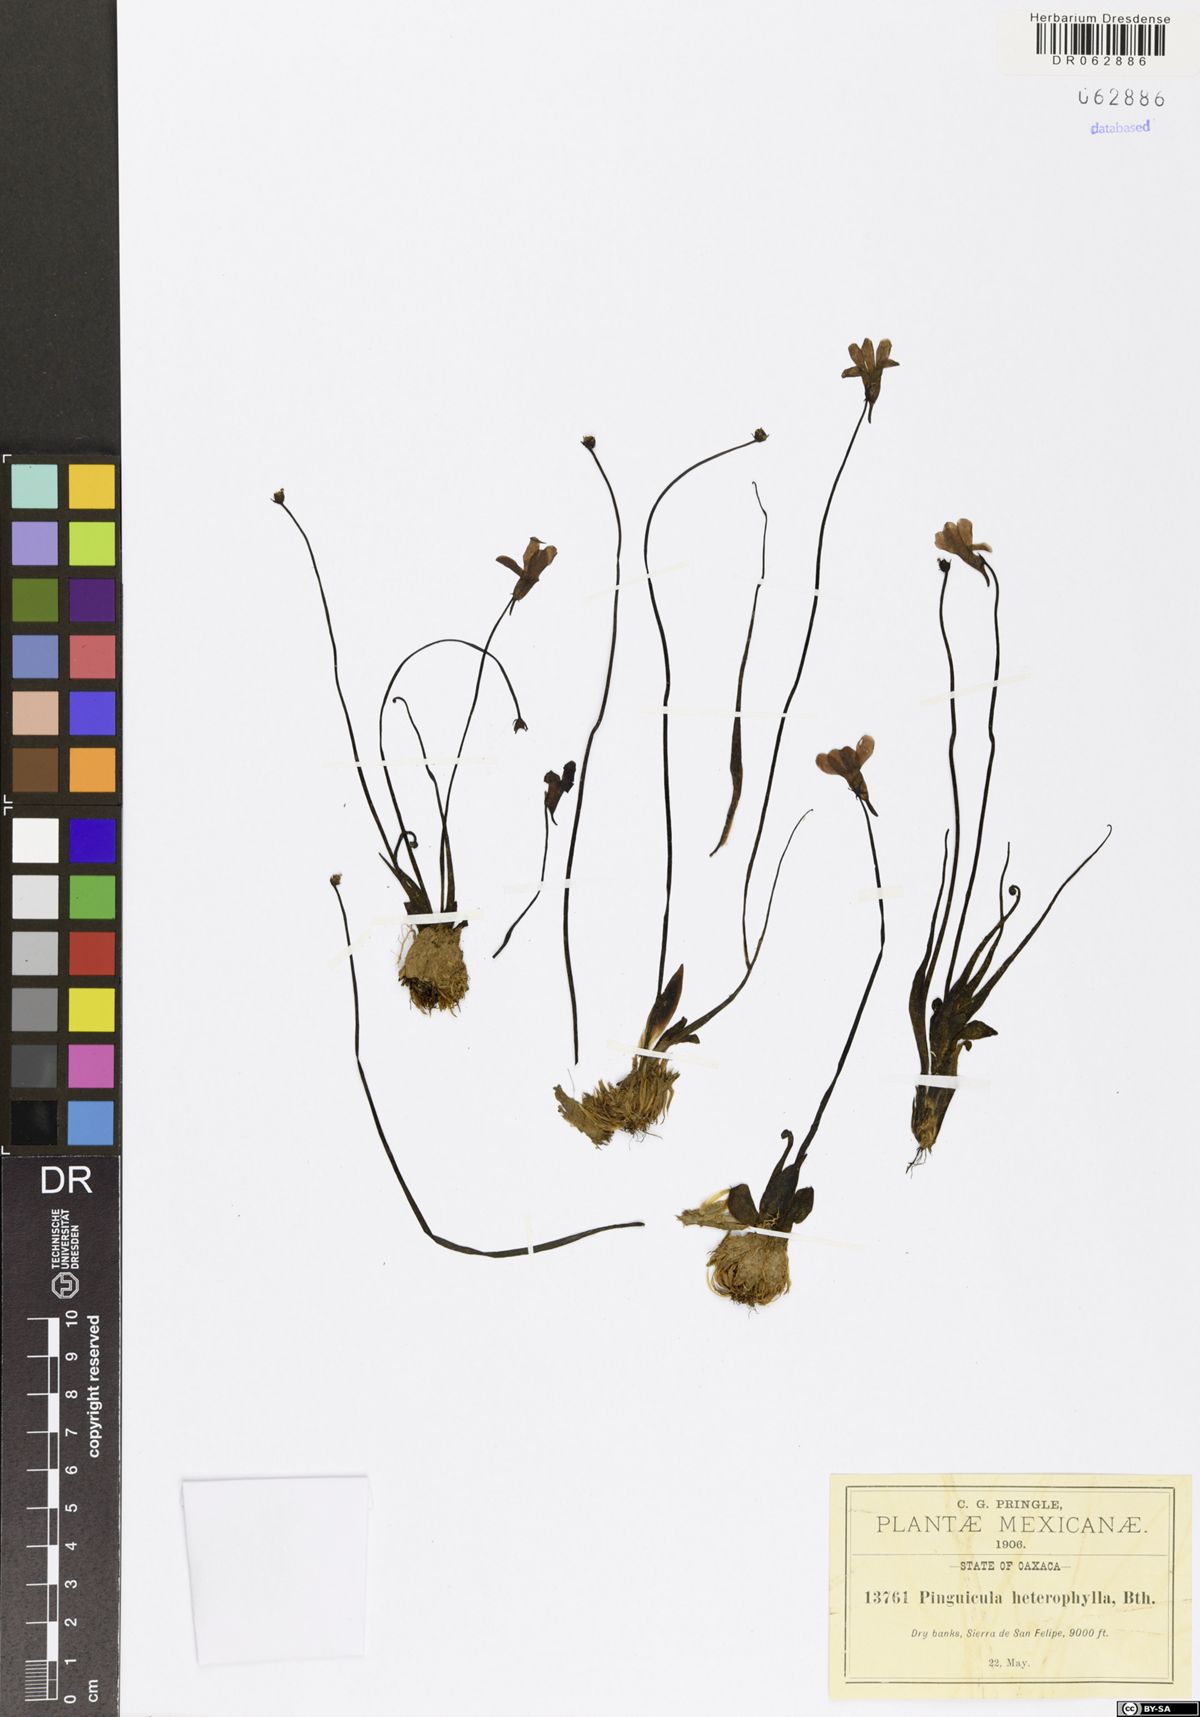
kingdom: Plantae
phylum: Tracheophyta
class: Magnoliopsida
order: Lamiales
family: Lentibulariaceae
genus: Pinguicula
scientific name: Pinguicula heterophylla
